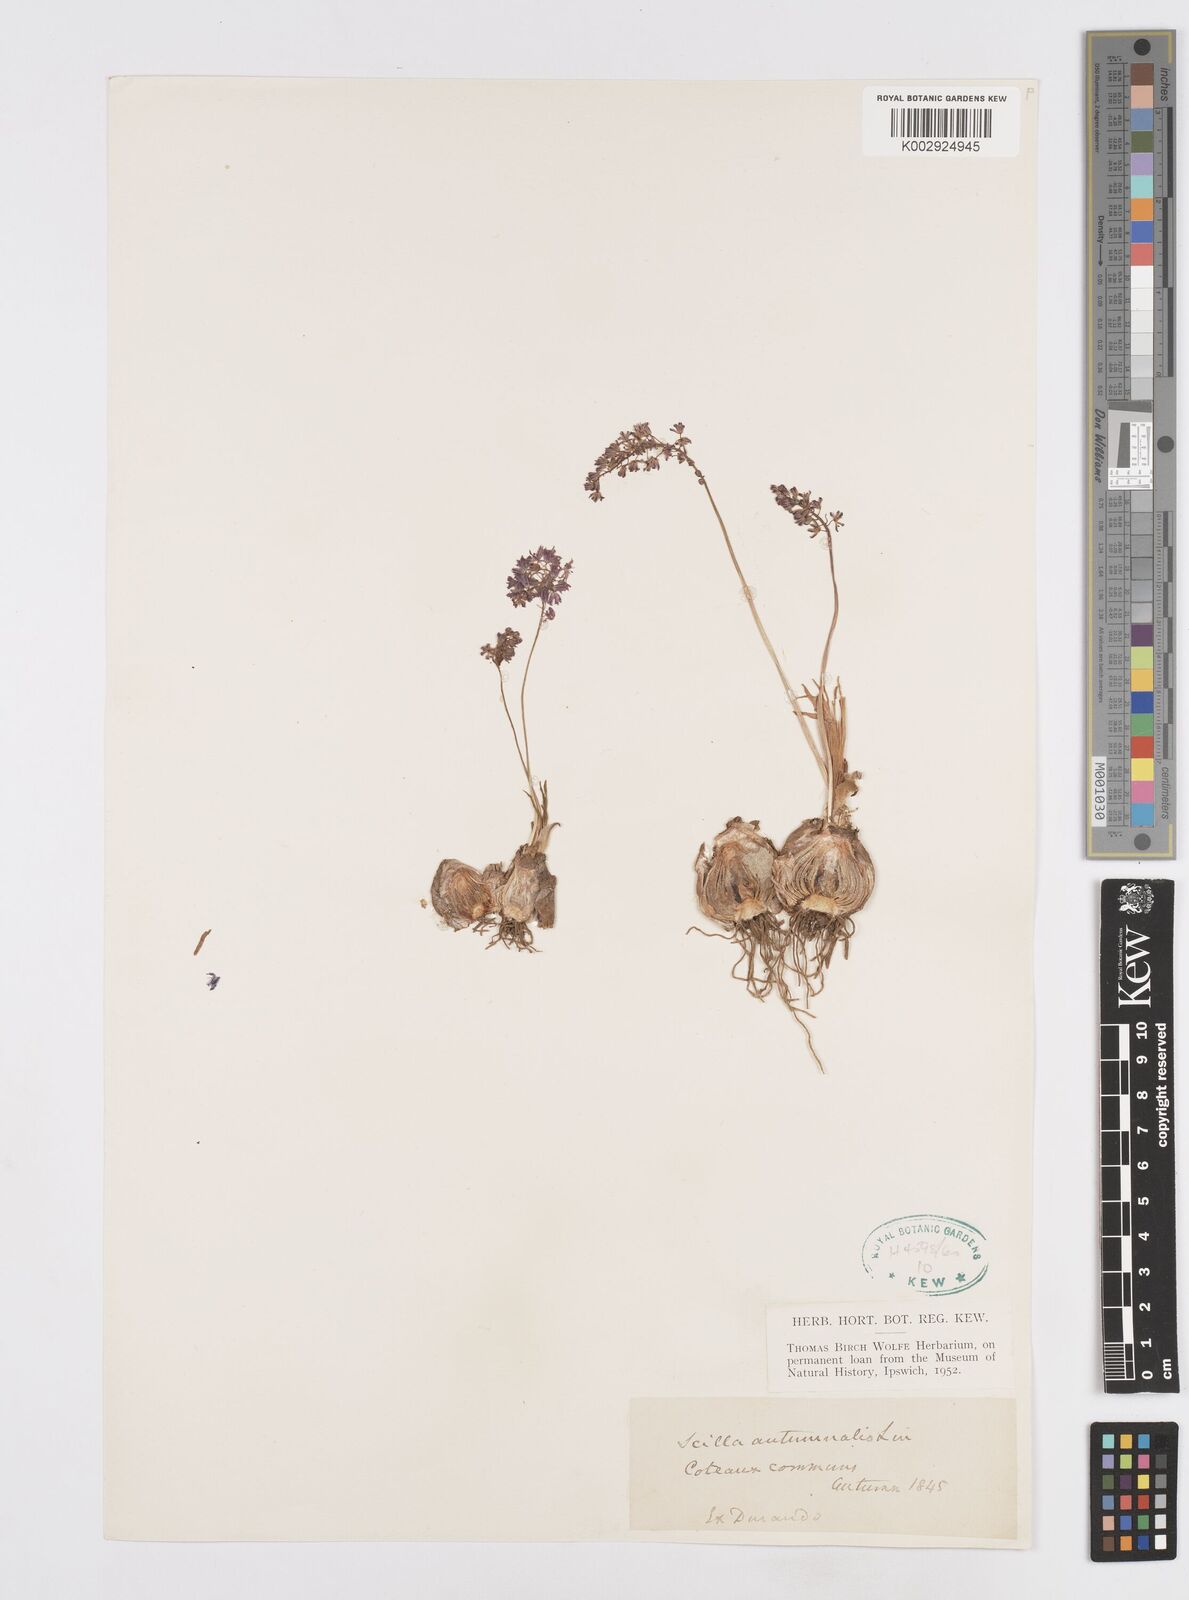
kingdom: Plantae
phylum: Tracheophyta
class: Liliopsida
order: Asparagales
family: Asparagaceae
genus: Prospero
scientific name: Prospero autumnale
